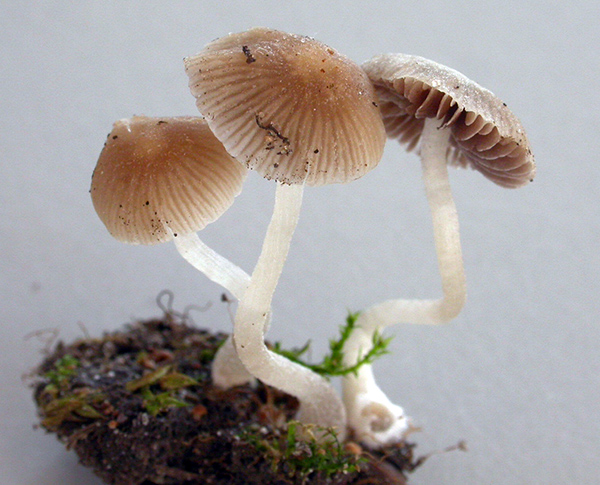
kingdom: Fungi
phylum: Basidiomycota
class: Agaricomycetes
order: Agaricales
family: Psathyrellaceae
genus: Psathyrella
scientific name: Psathyrella pygmaea
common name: dværg-mørkhat
